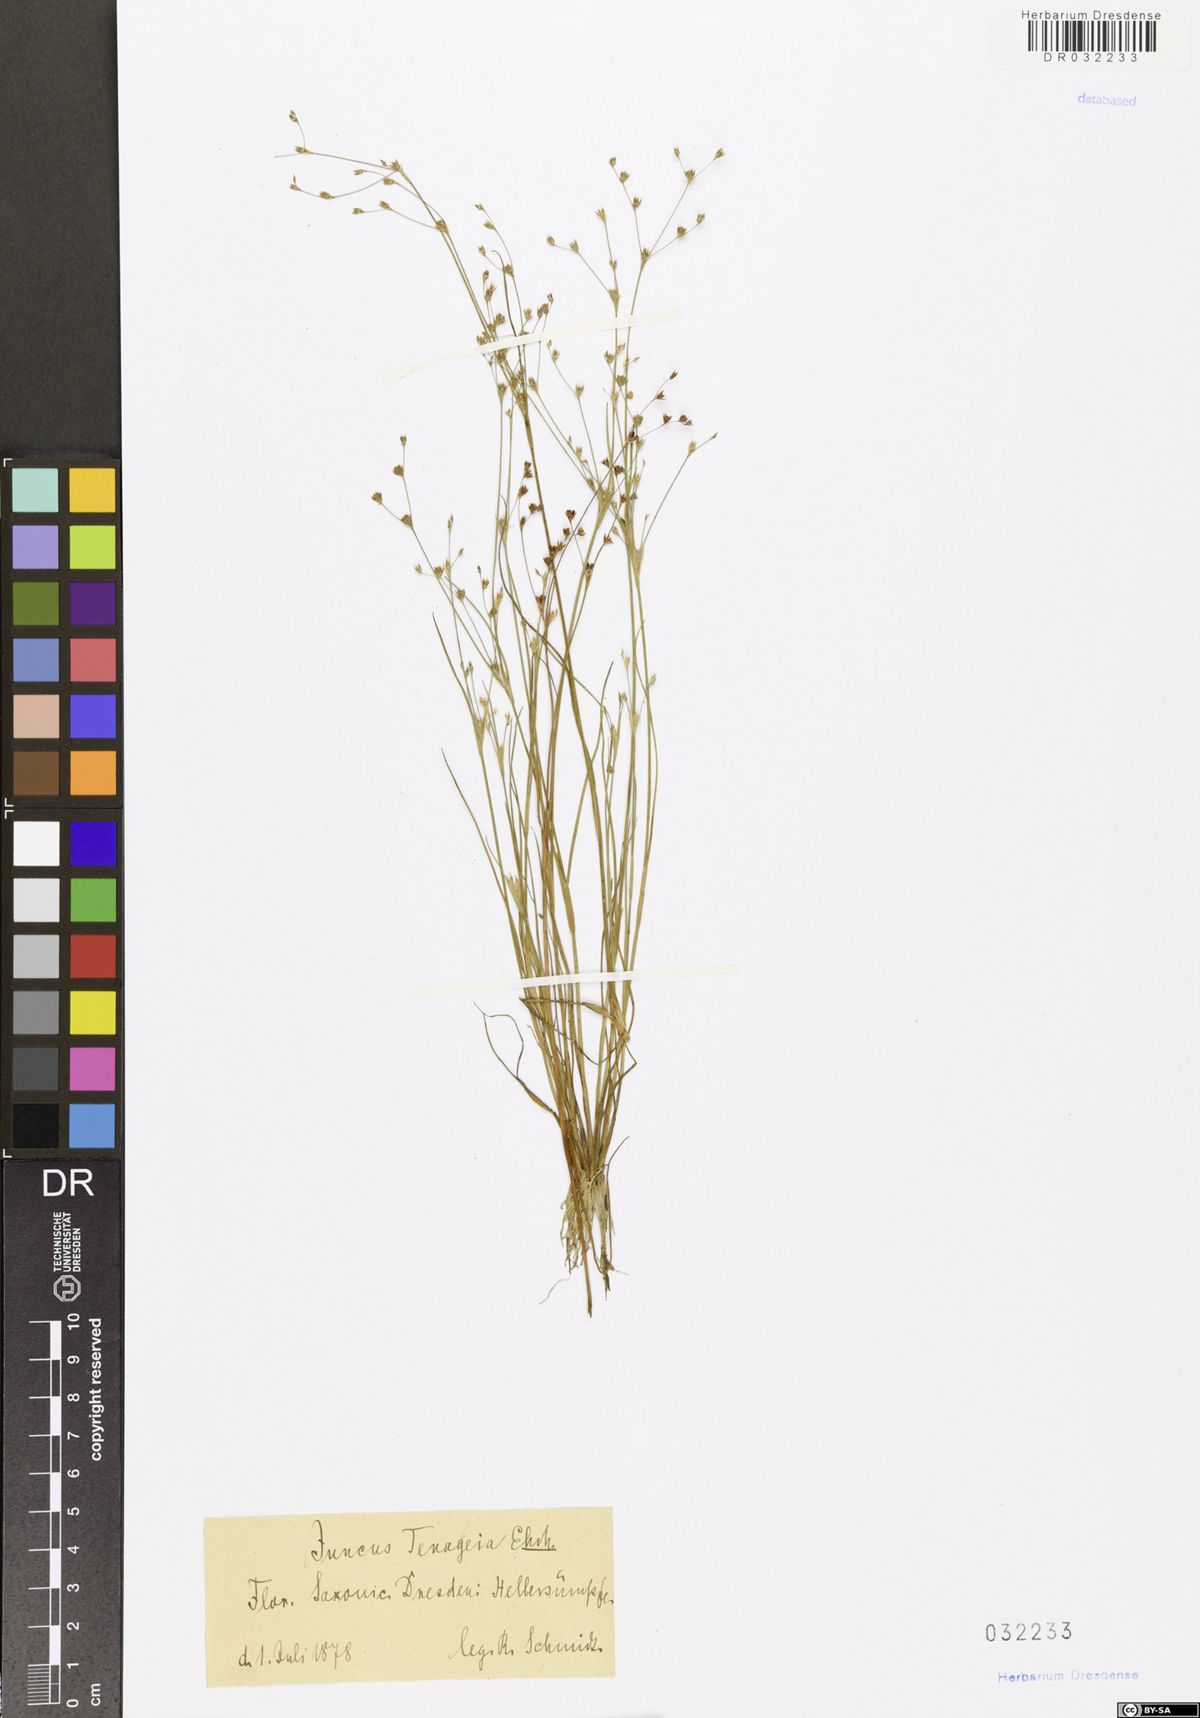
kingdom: Plantae
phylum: Tracheophyta
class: Liliopsida
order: Poales
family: Juncaceae
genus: Juncus
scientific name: Juncus tenageia
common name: Sand rush
